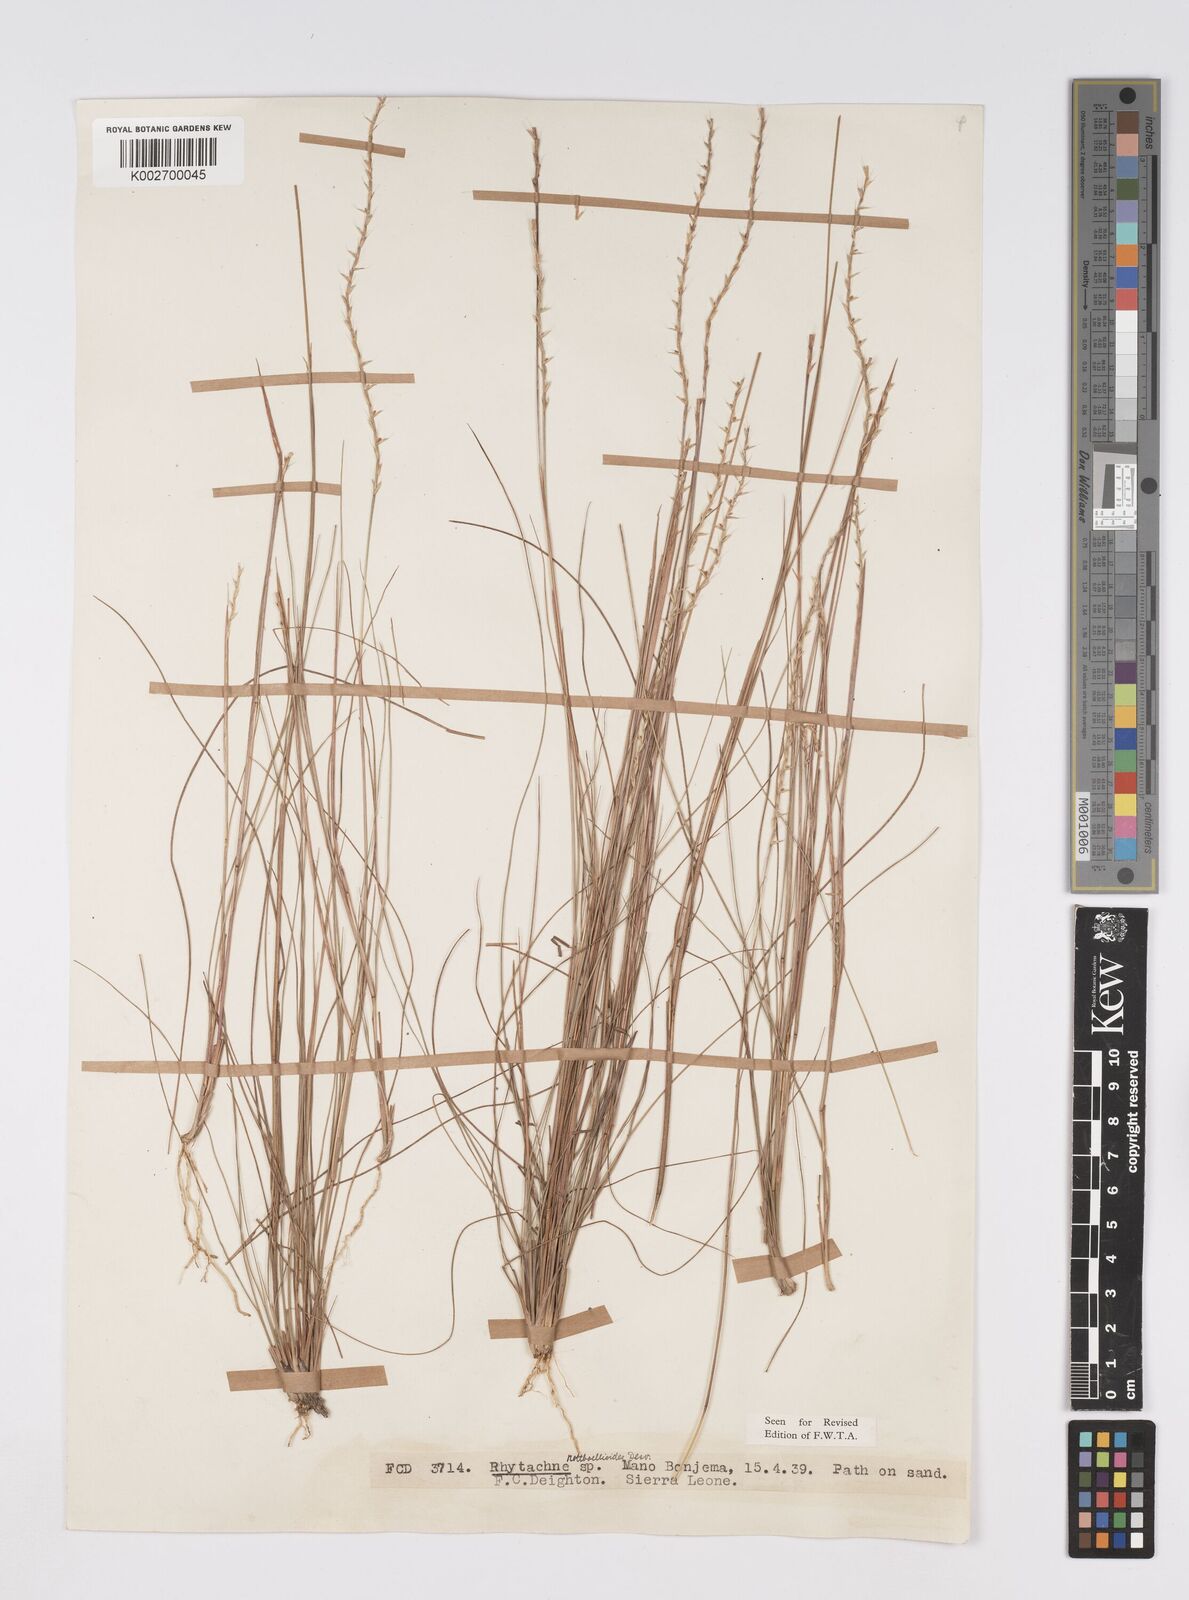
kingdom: Plantae
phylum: Tracheophyta
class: Liliopsida
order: Poales
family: Poaceae
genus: Rhytachne
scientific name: Rhytachne rottboellioides
